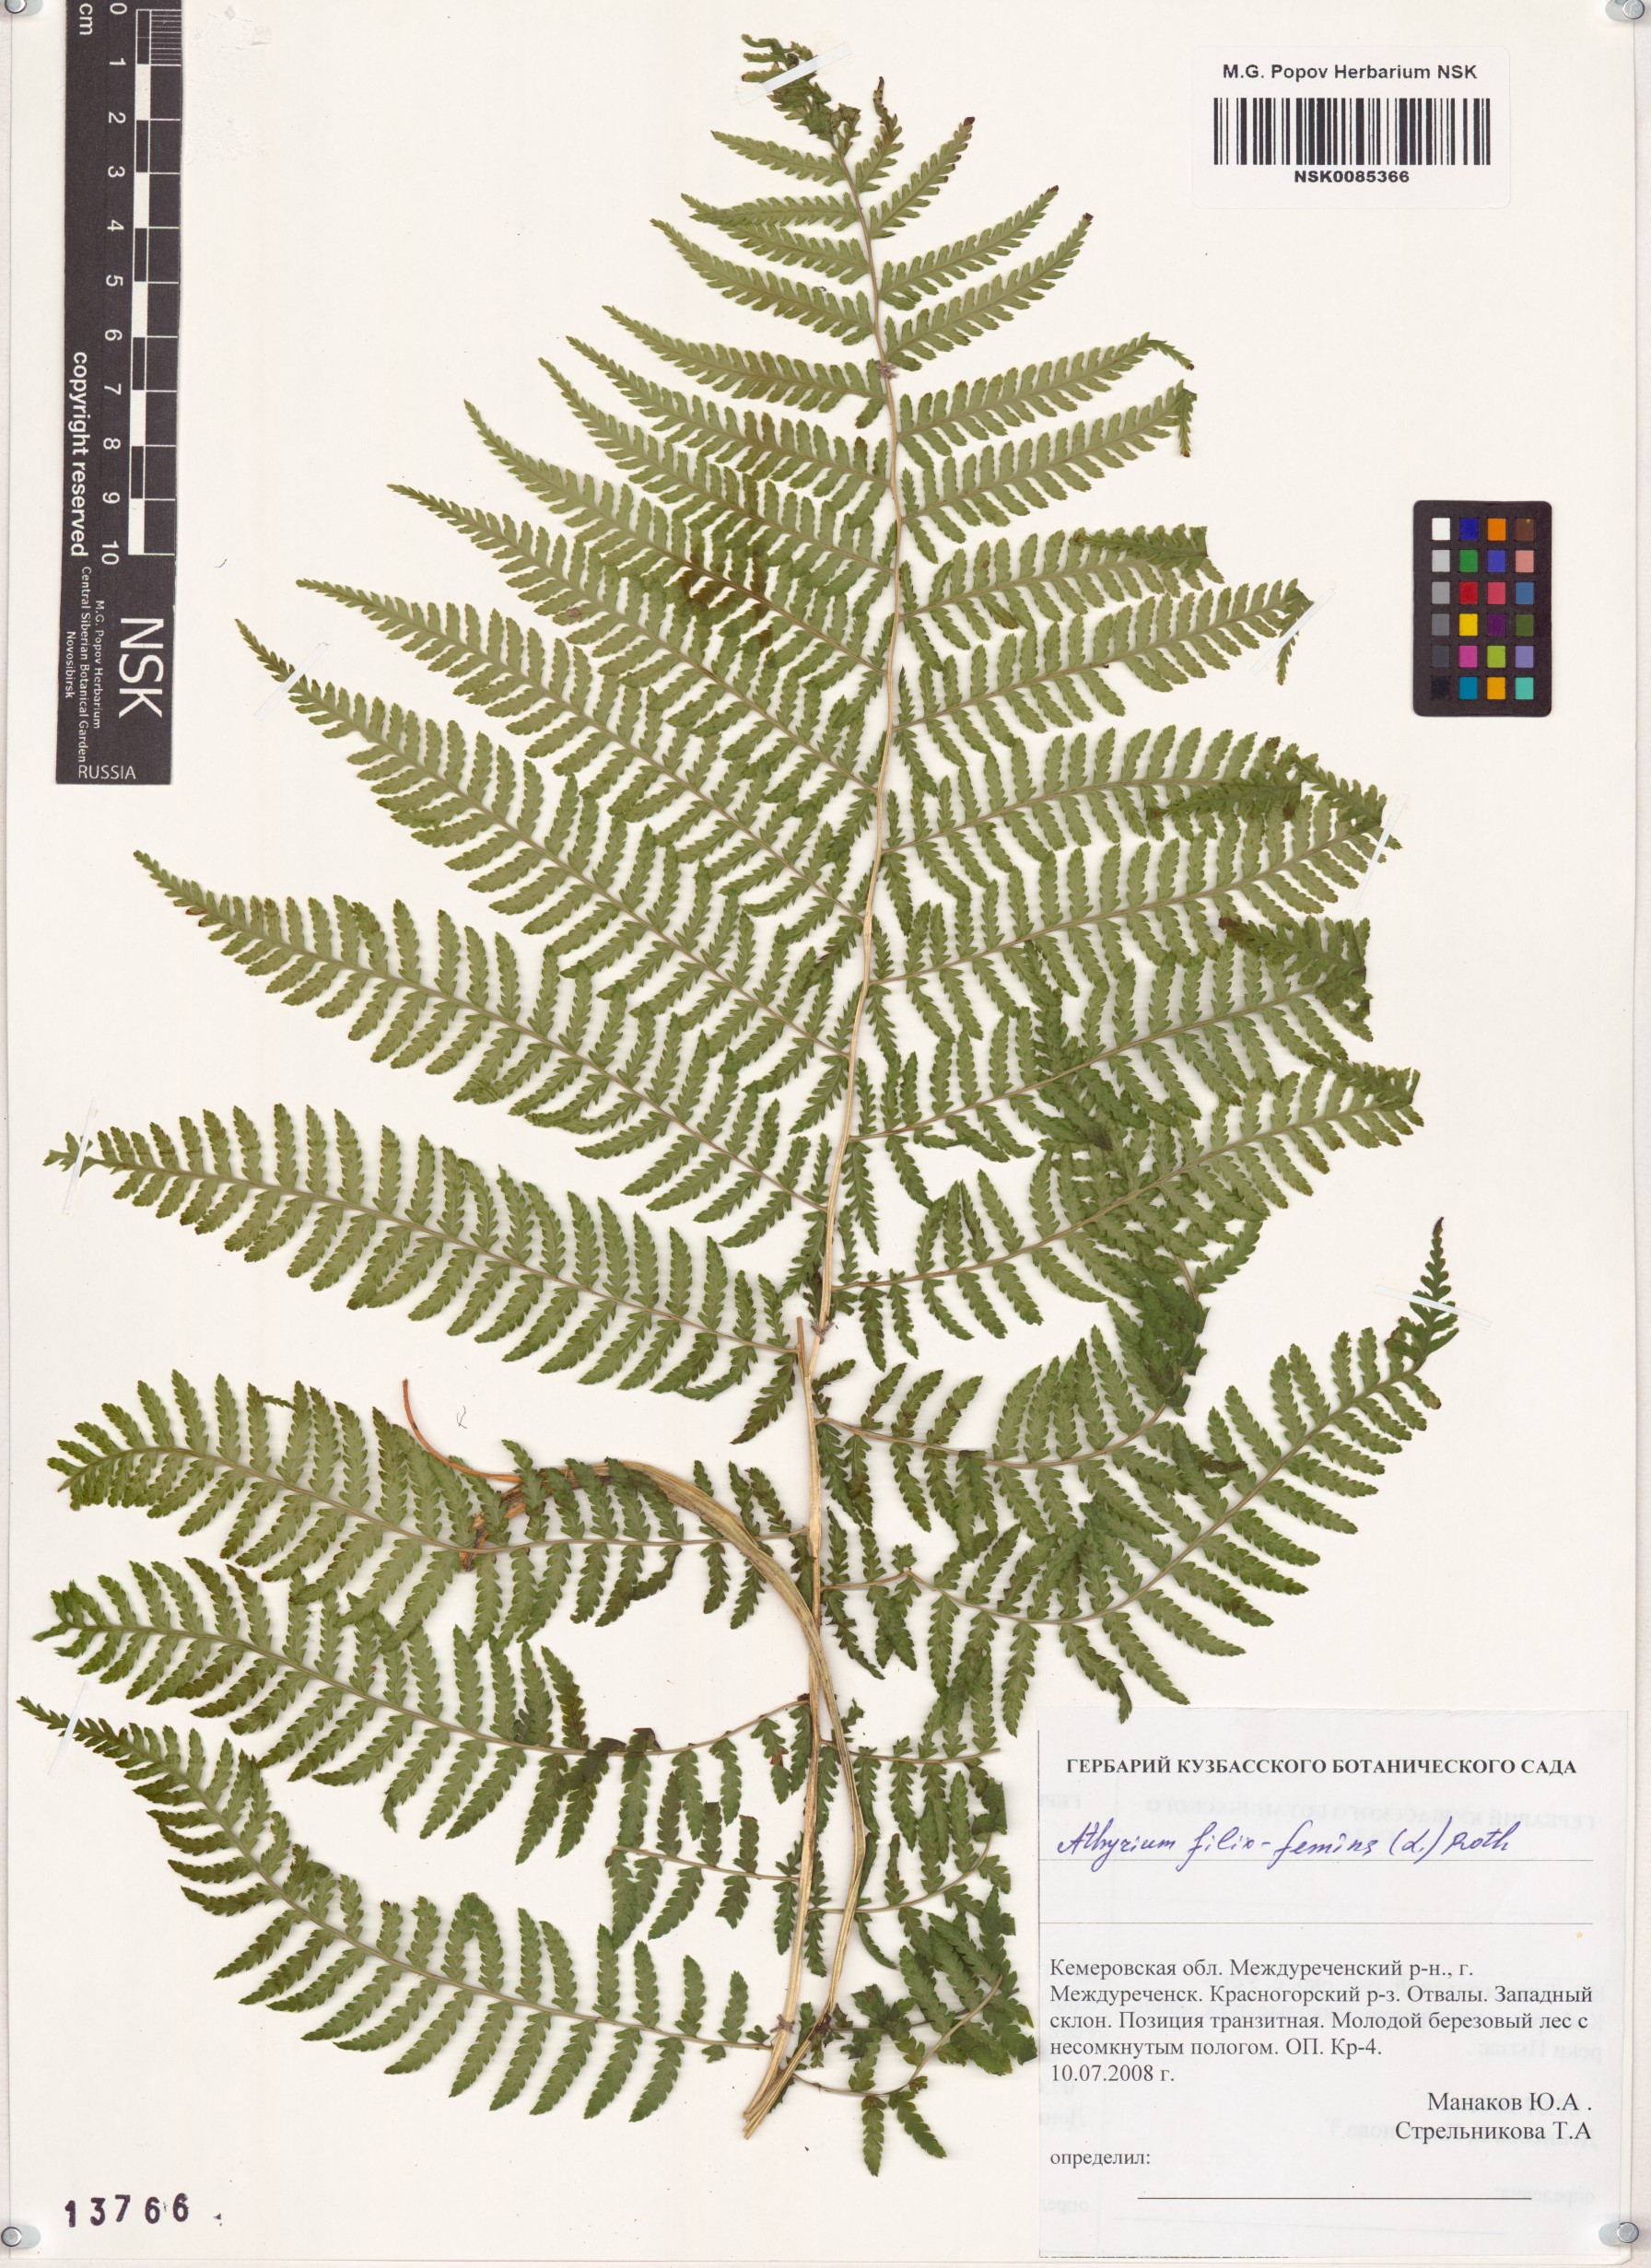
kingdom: Plantae
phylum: Tracheophyta
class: Polypodiopsida
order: Polypodiales
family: Athyriaceae
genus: Athyrium
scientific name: Athyrium filix-femina
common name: Lady fern
